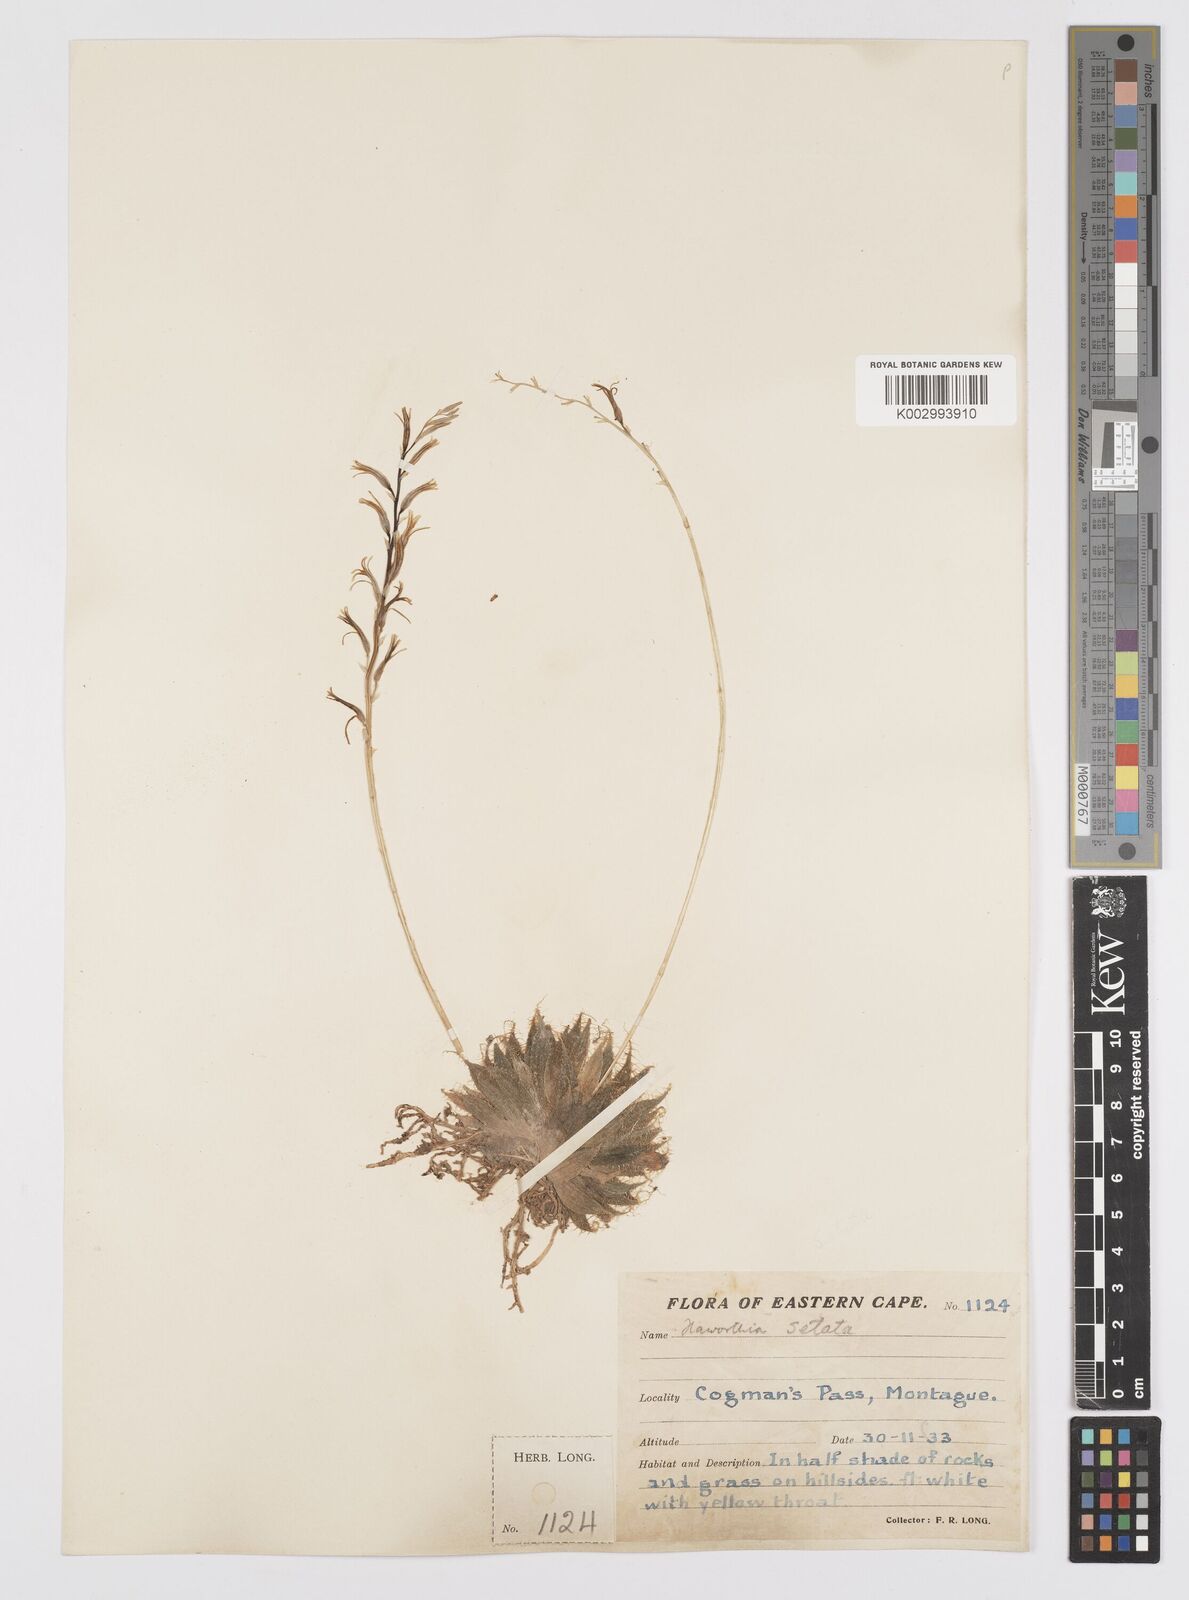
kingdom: Plantae
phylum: Tracheophyta
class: Liliopsida
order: Asparagales
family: Asphodelaceae
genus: Haworthia
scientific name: Haworthia arachnoidea
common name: Cobweb-aloe
